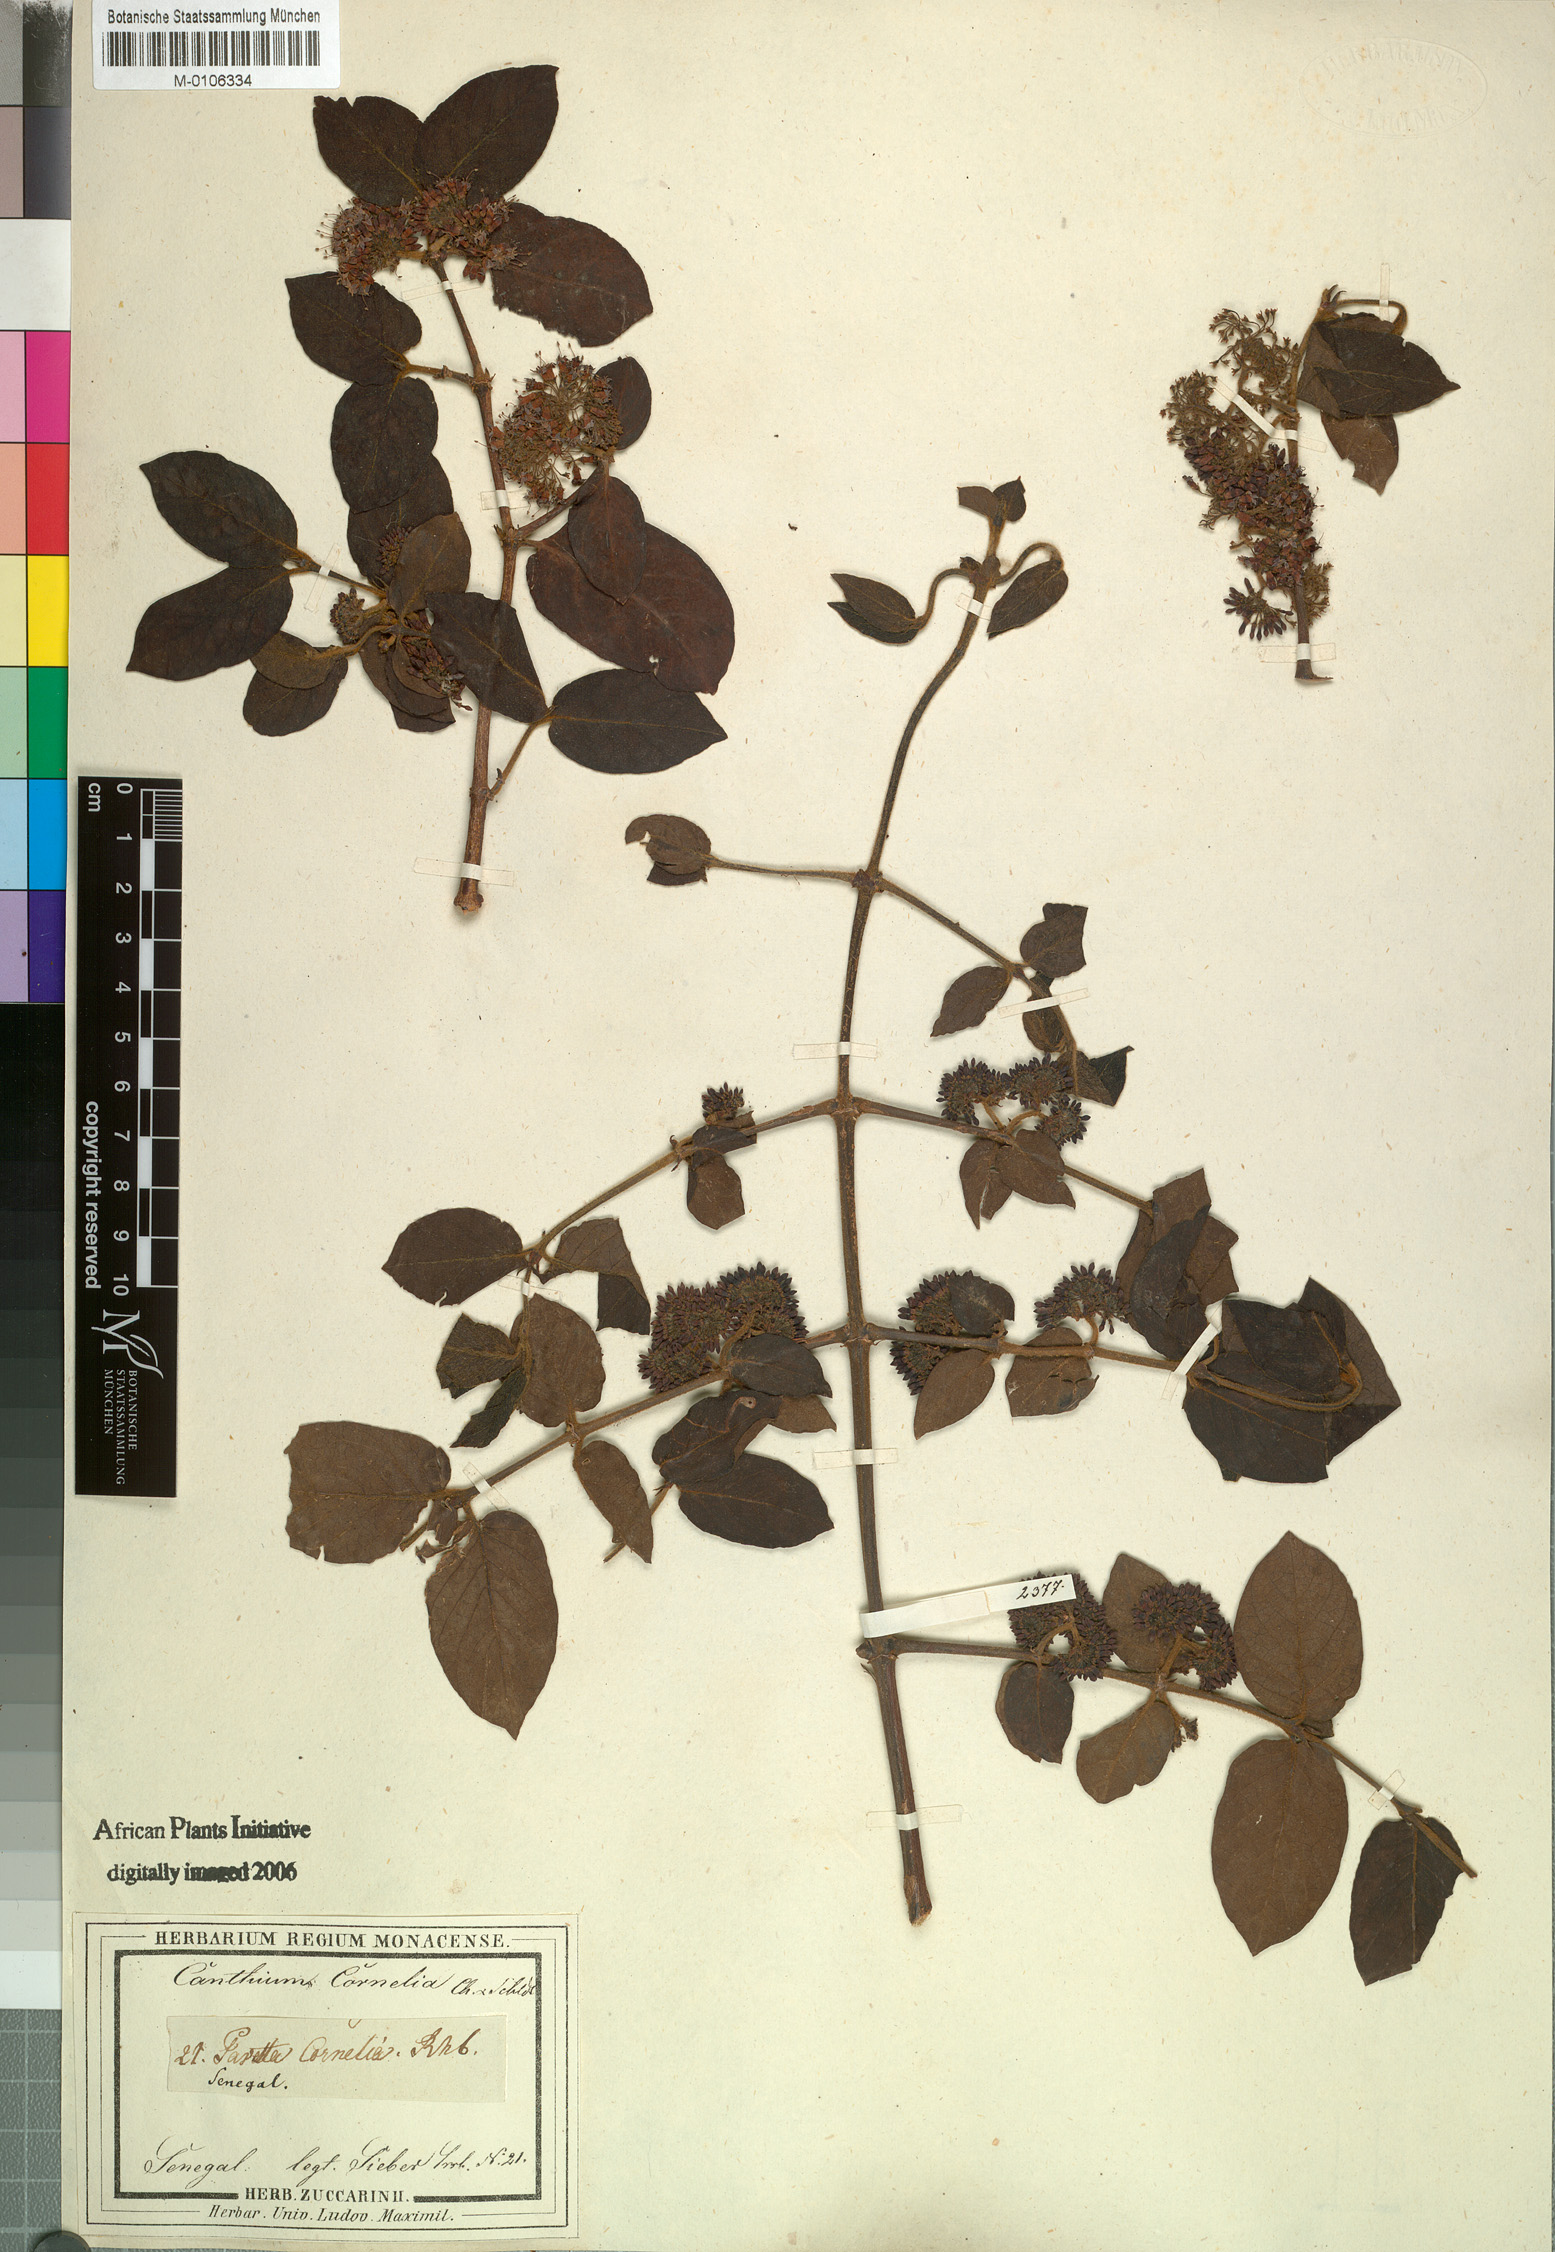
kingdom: Plantae
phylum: Tracheophyta
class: Magnoliopsida
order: Gentianales
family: Rubiaceae
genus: Keetia
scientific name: Keetia cornelia
